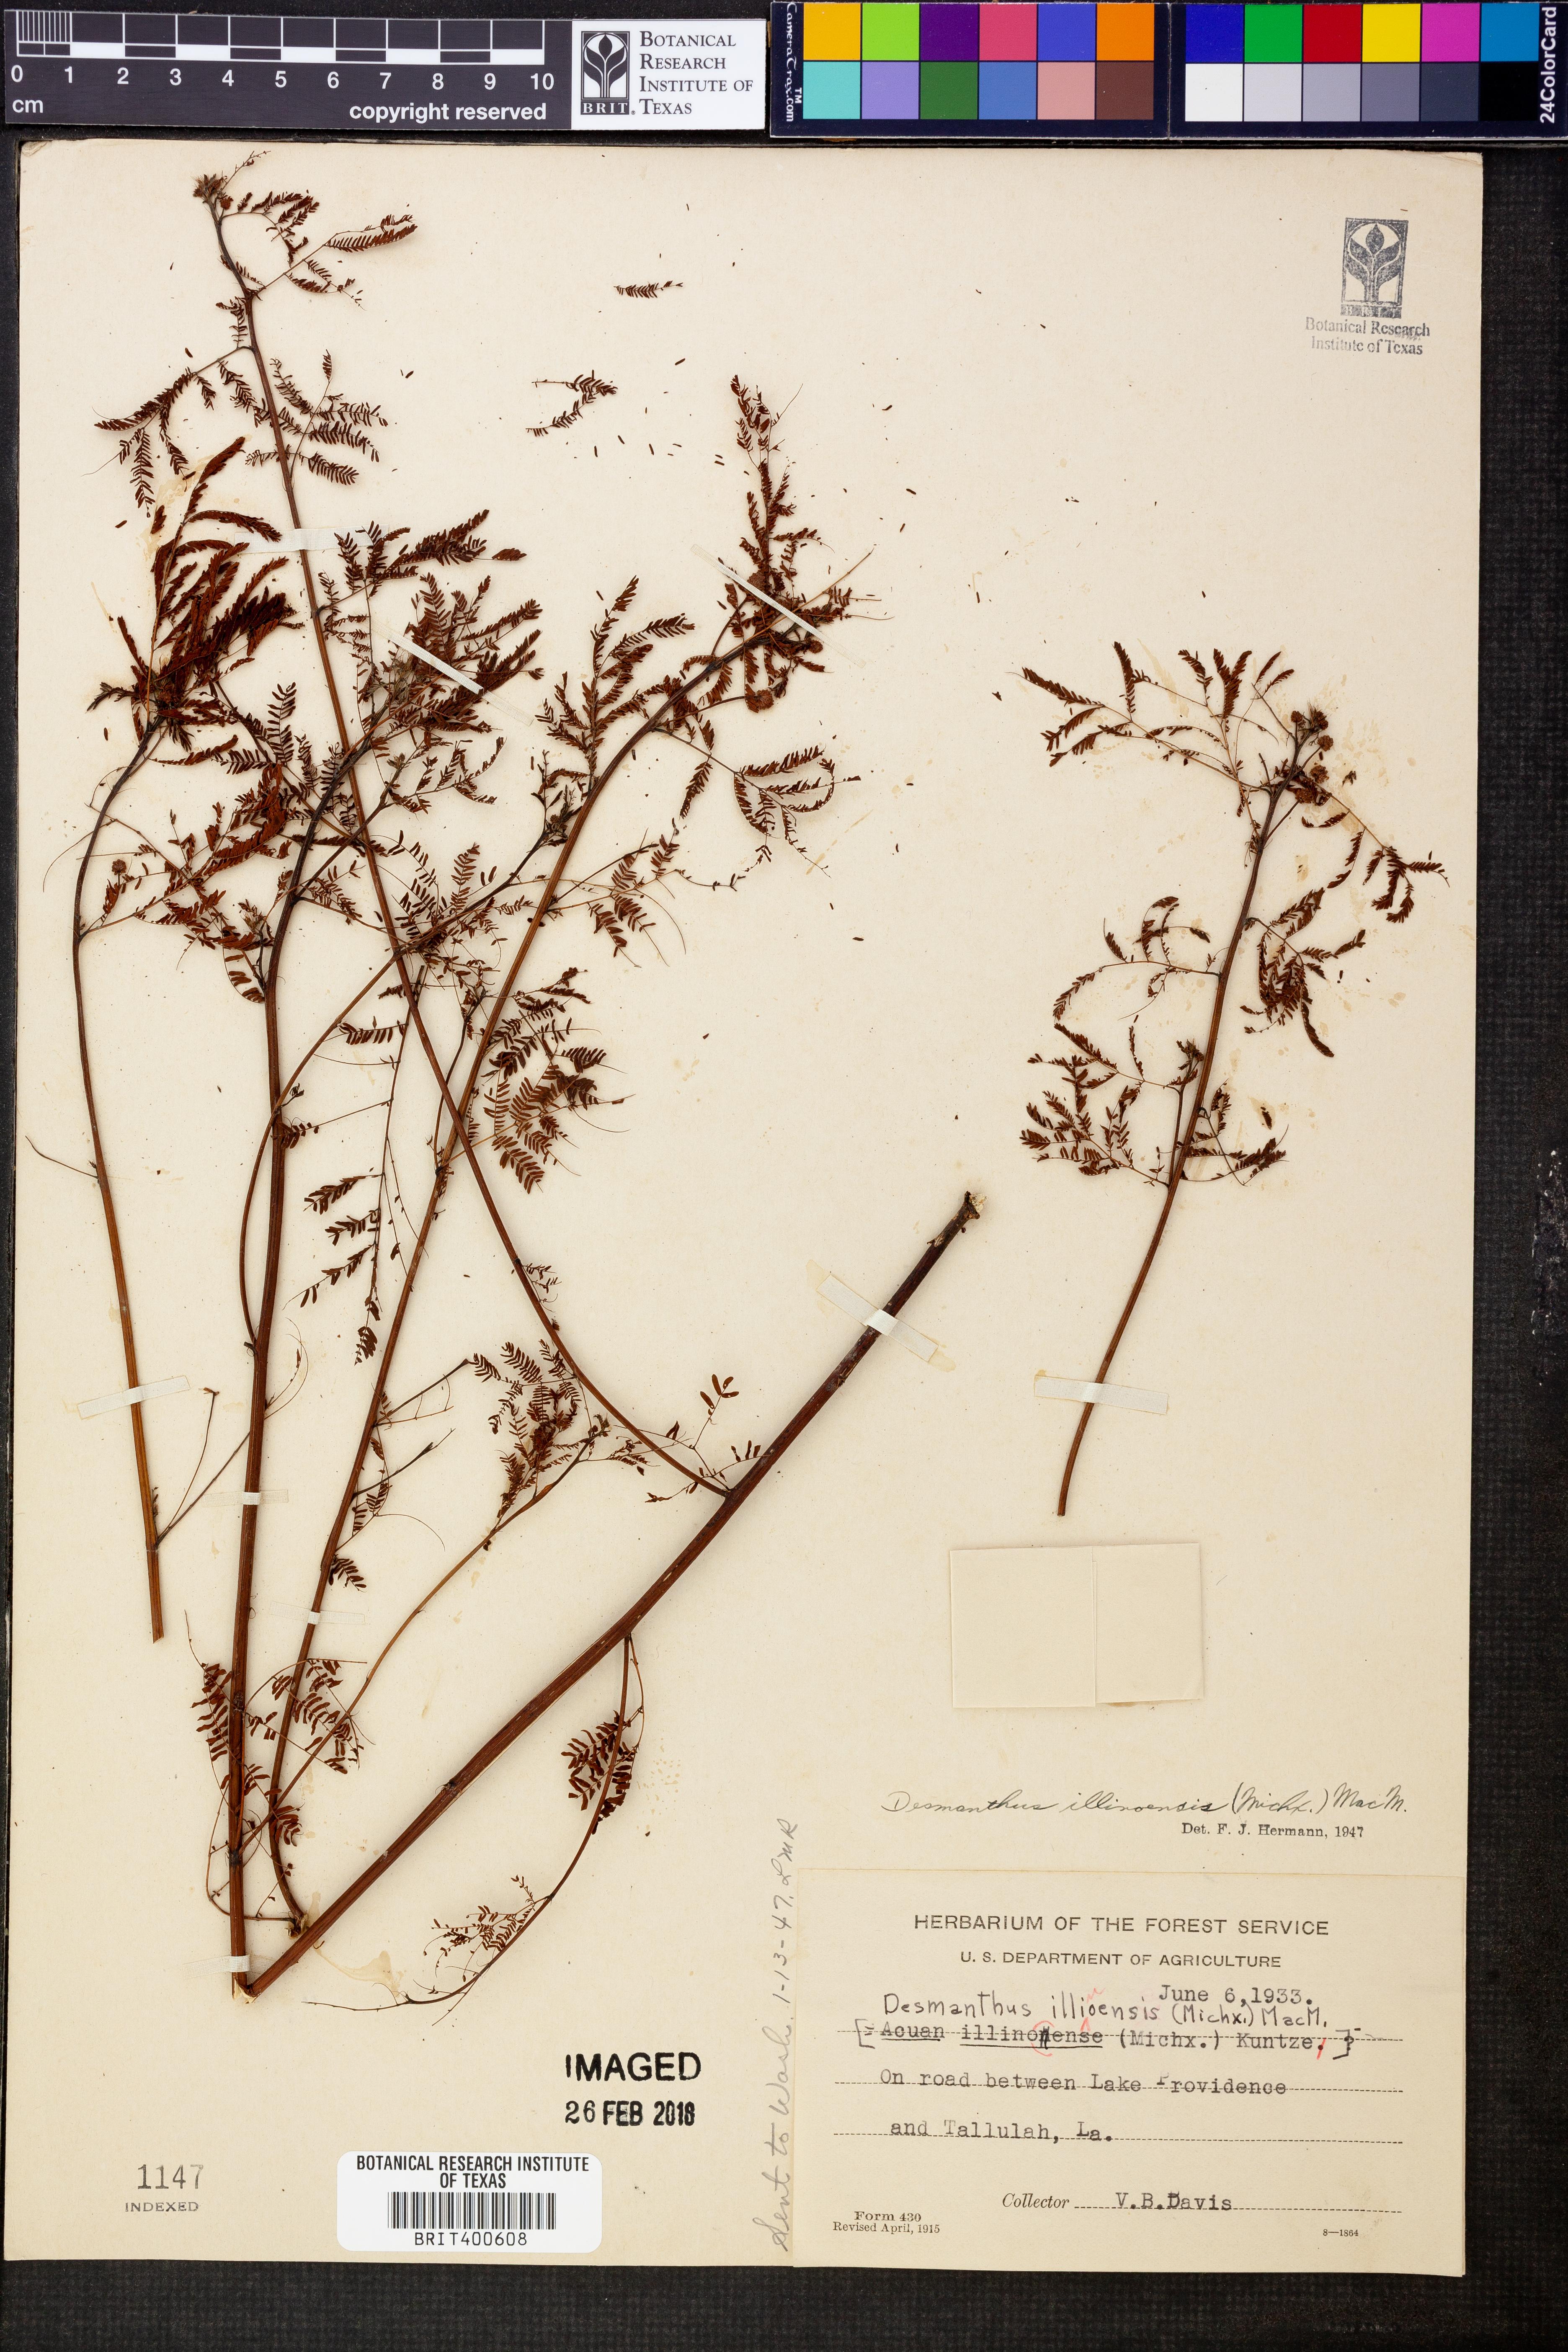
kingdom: Plantae
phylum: Tracheophyta
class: Magnoliopsida
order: Fabales
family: Fabaceae
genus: Desmanthus
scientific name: Desmanthus illinoensis
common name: Illinois bundle-flower
